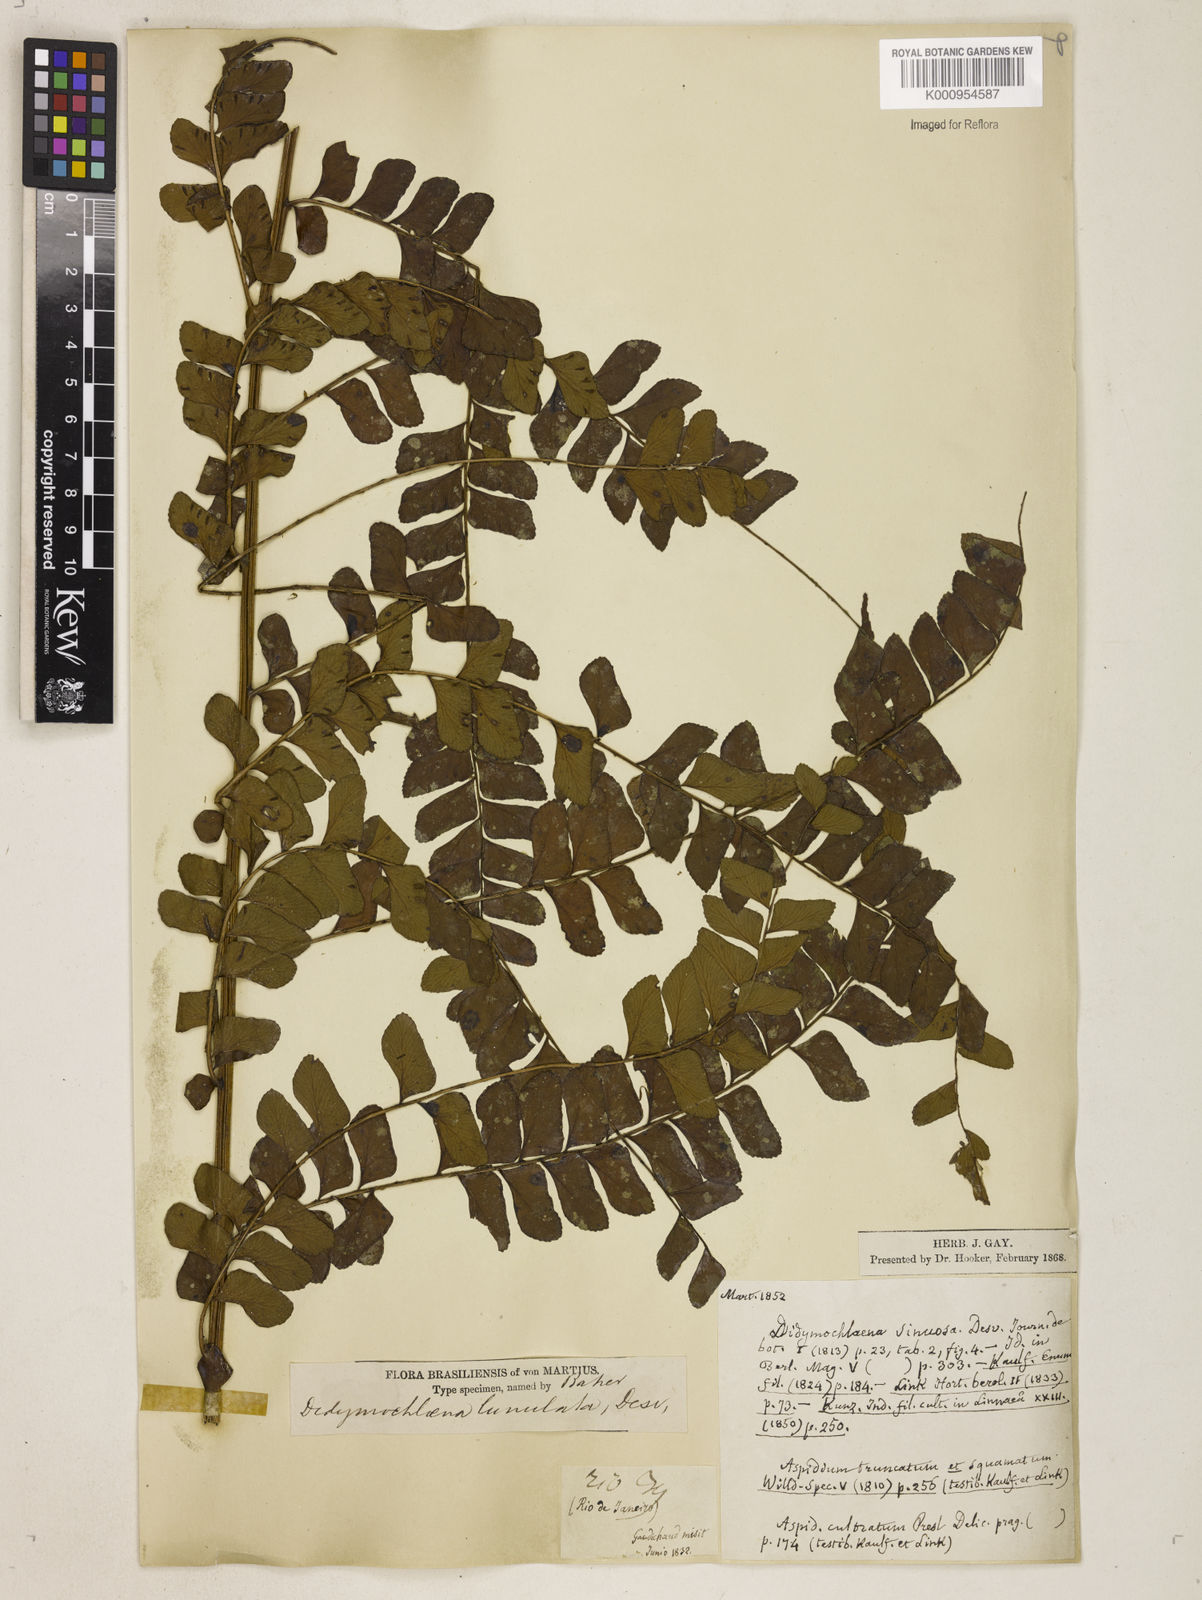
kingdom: Plantae
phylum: Tracheophyta
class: Polypodiopsida
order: Polypodiales
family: Didymochlaenaceae
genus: Didymochlaena
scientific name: Didymochlaena truncatula
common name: Mahogany fern
